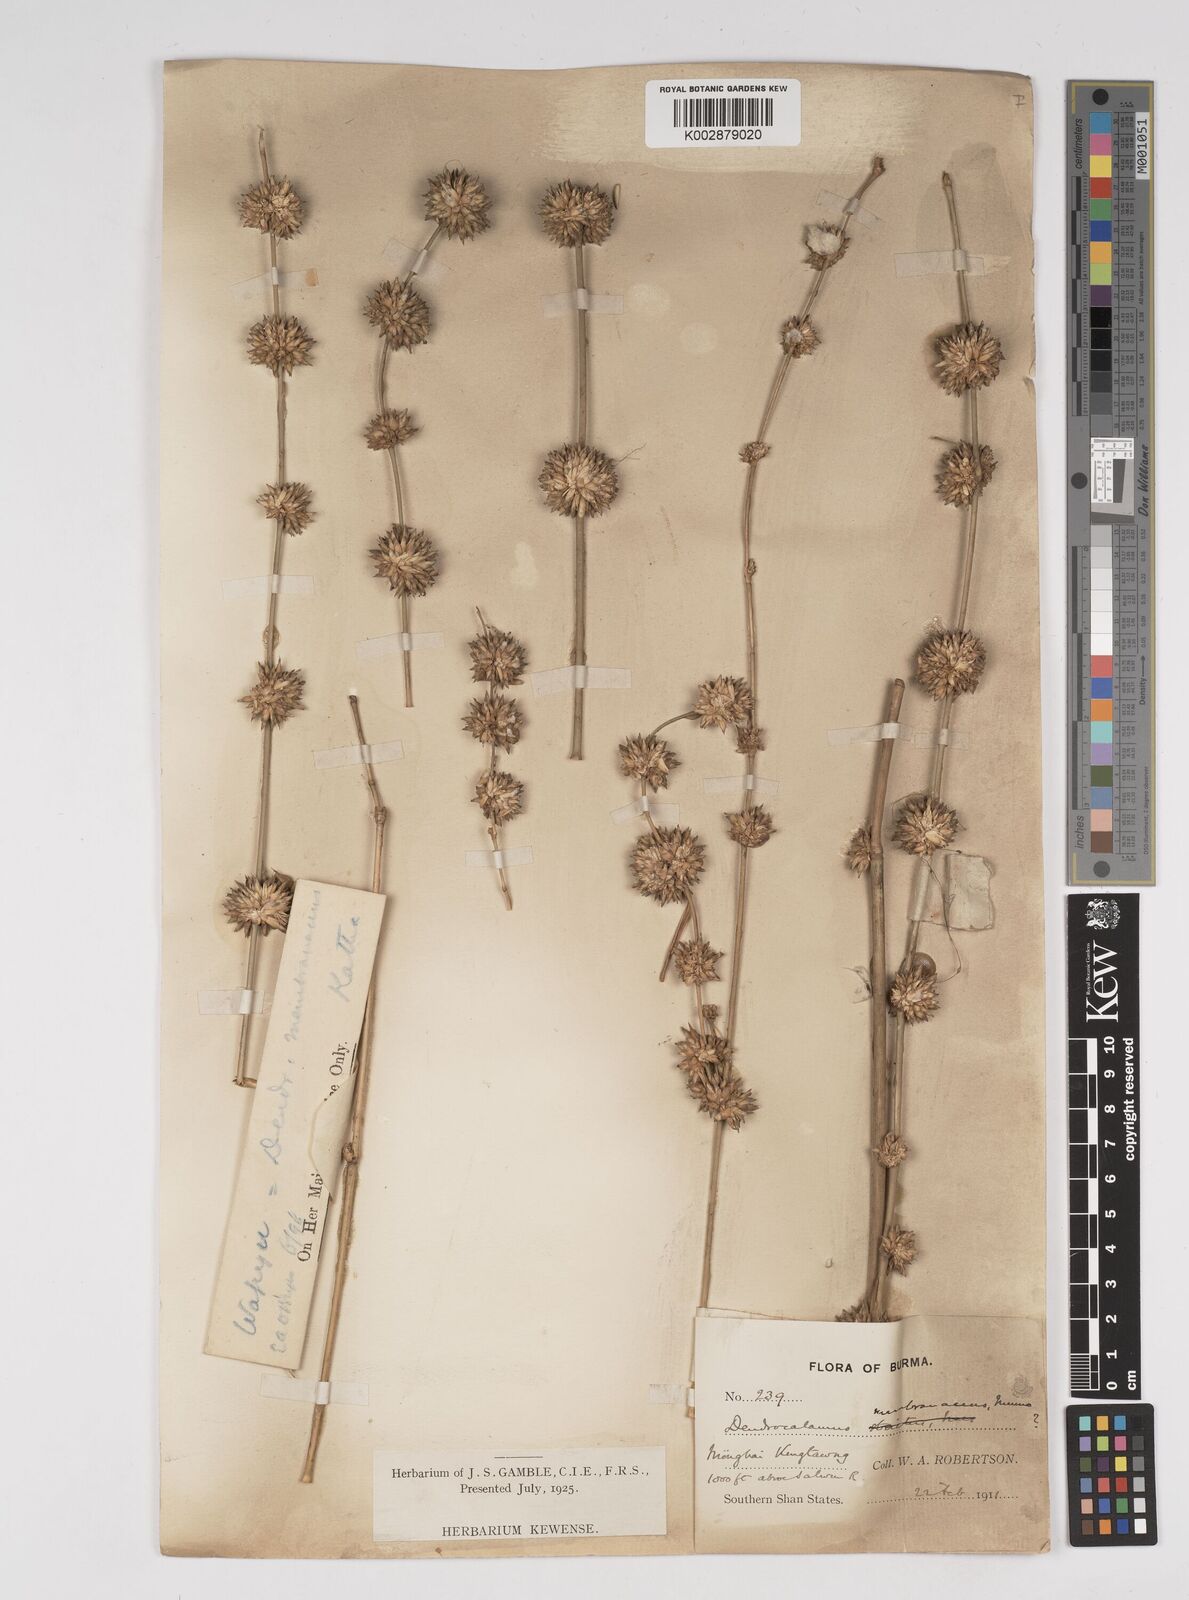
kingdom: Plantae
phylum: Tracheophyta
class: Liliopsida
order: Poales
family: Poaceae
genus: Dendrocalamus
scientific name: Dendrocalamus membranaceus
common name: White bamboo
